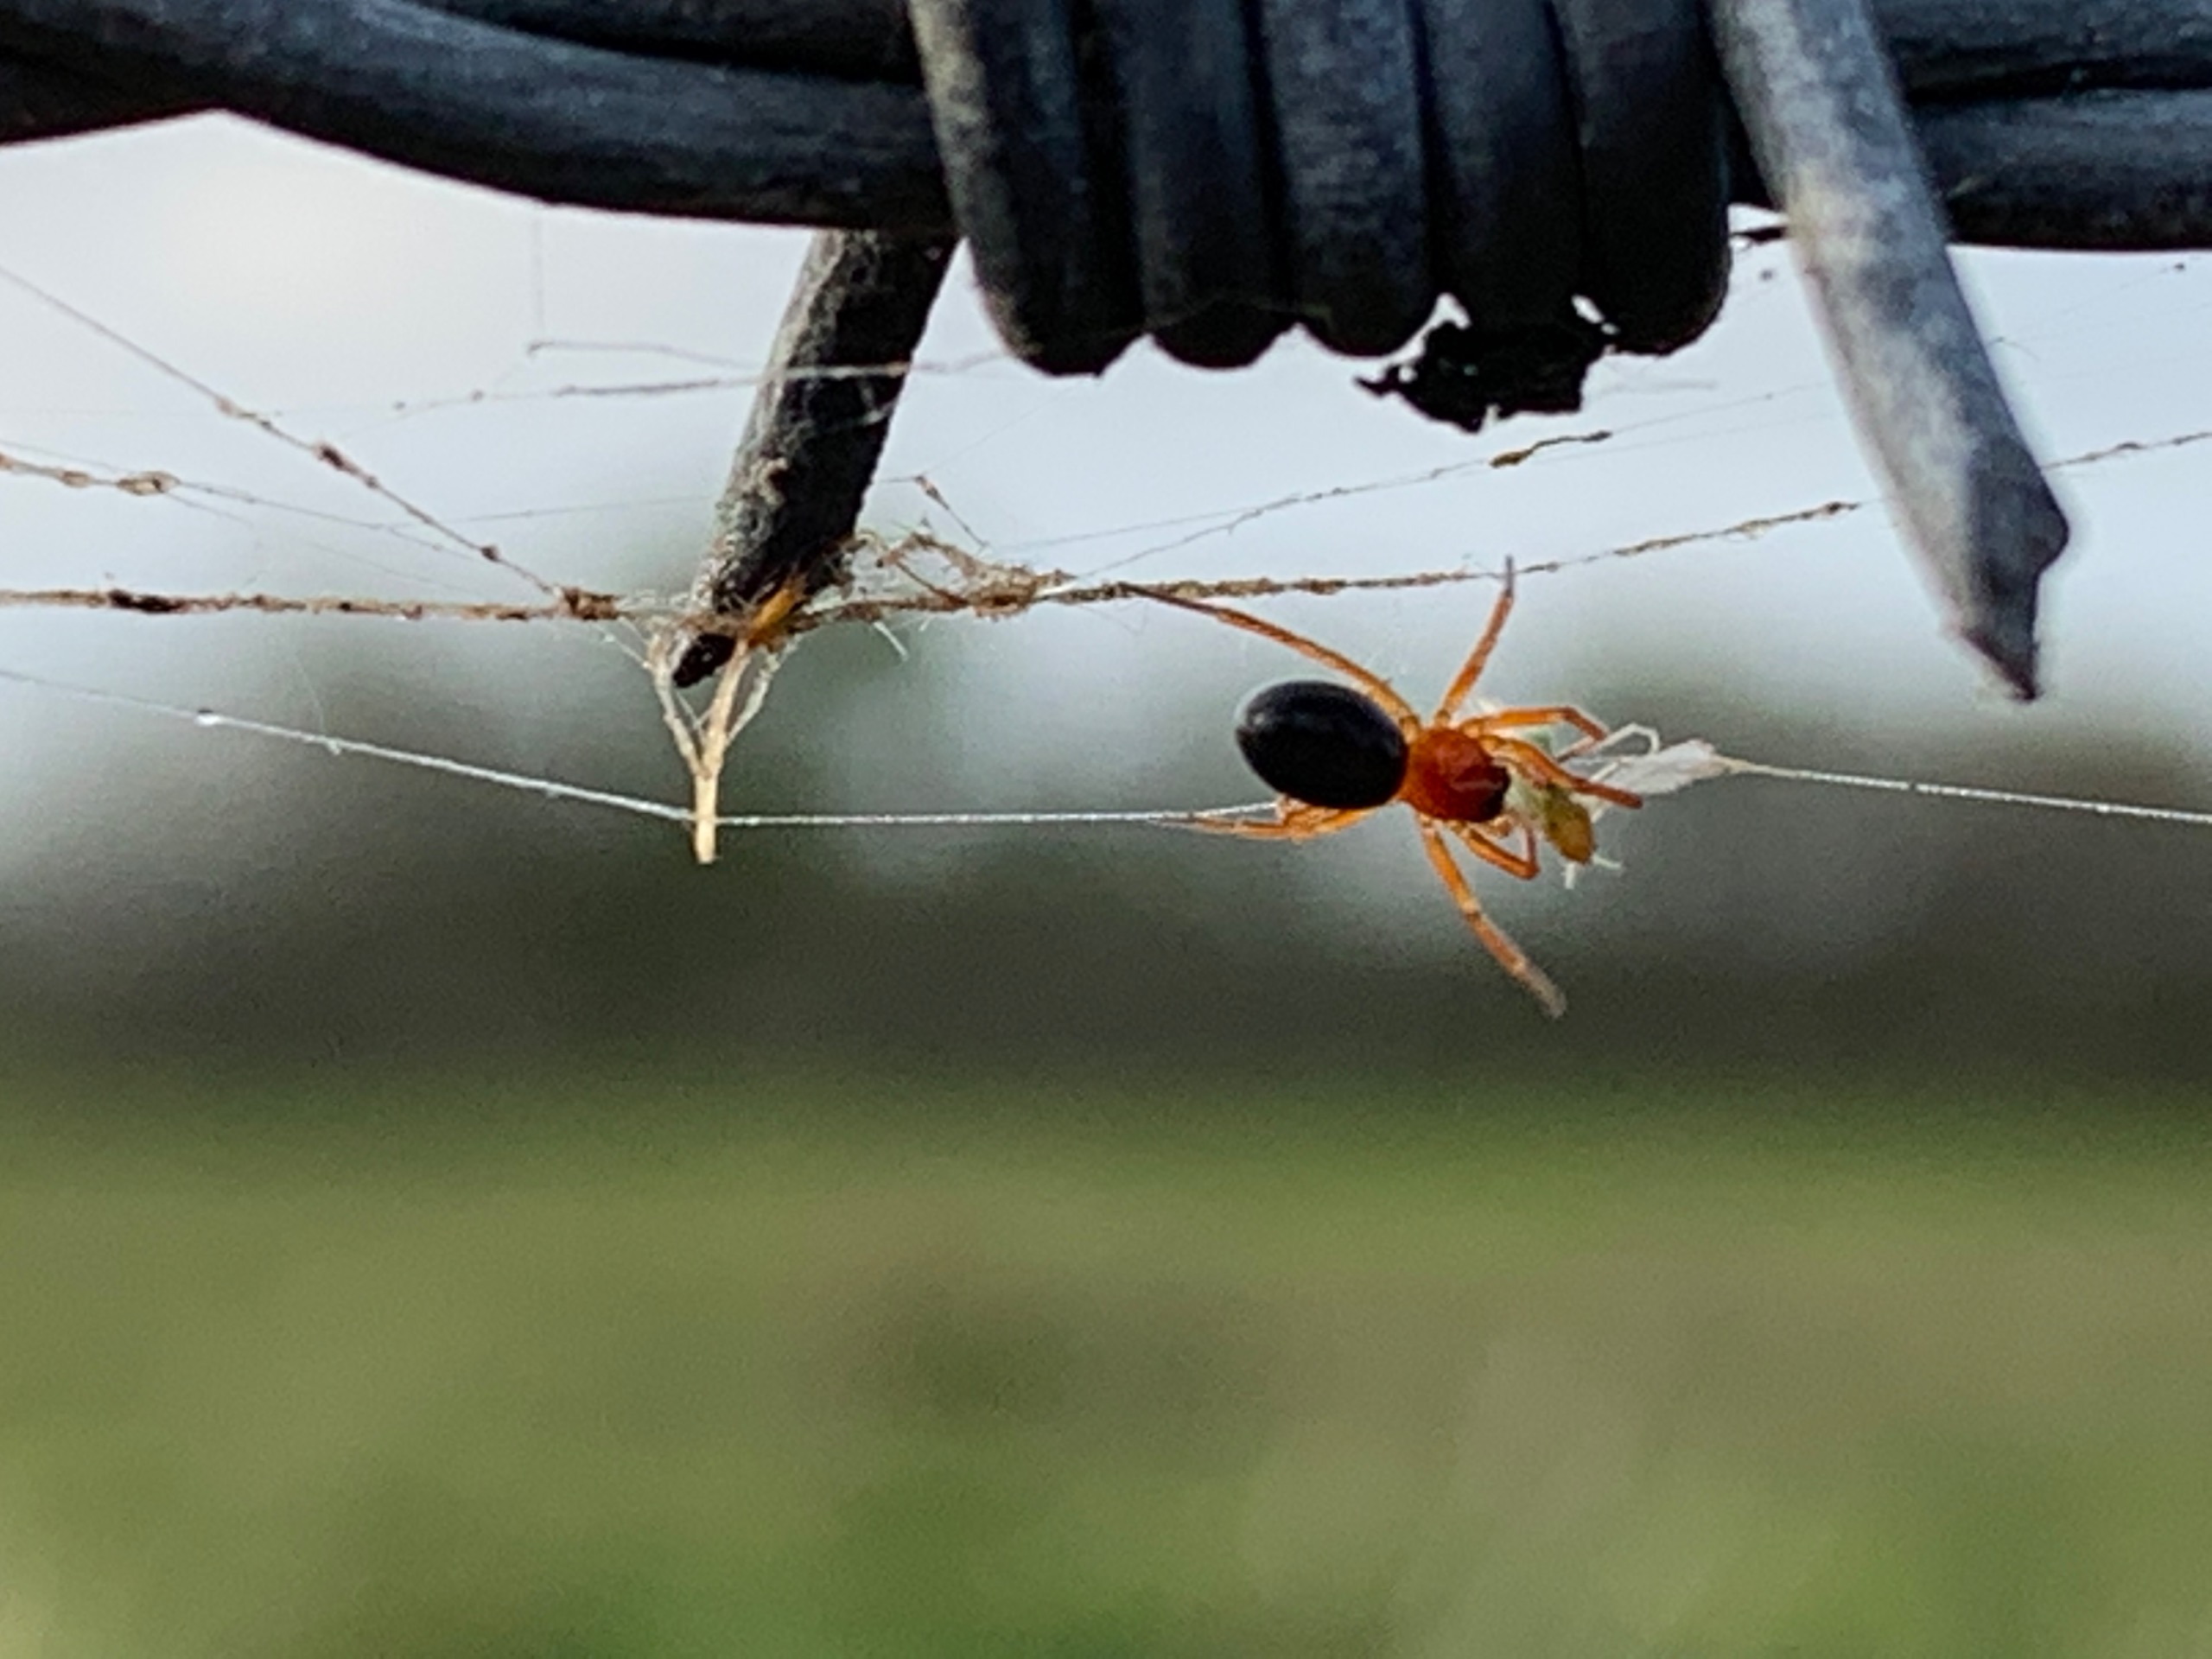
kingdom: Animalia
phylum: Arthropoda
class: Arachnida
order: Araneae
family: Linyphiidae
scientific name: Linyphiidae
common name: Tæppespindere
